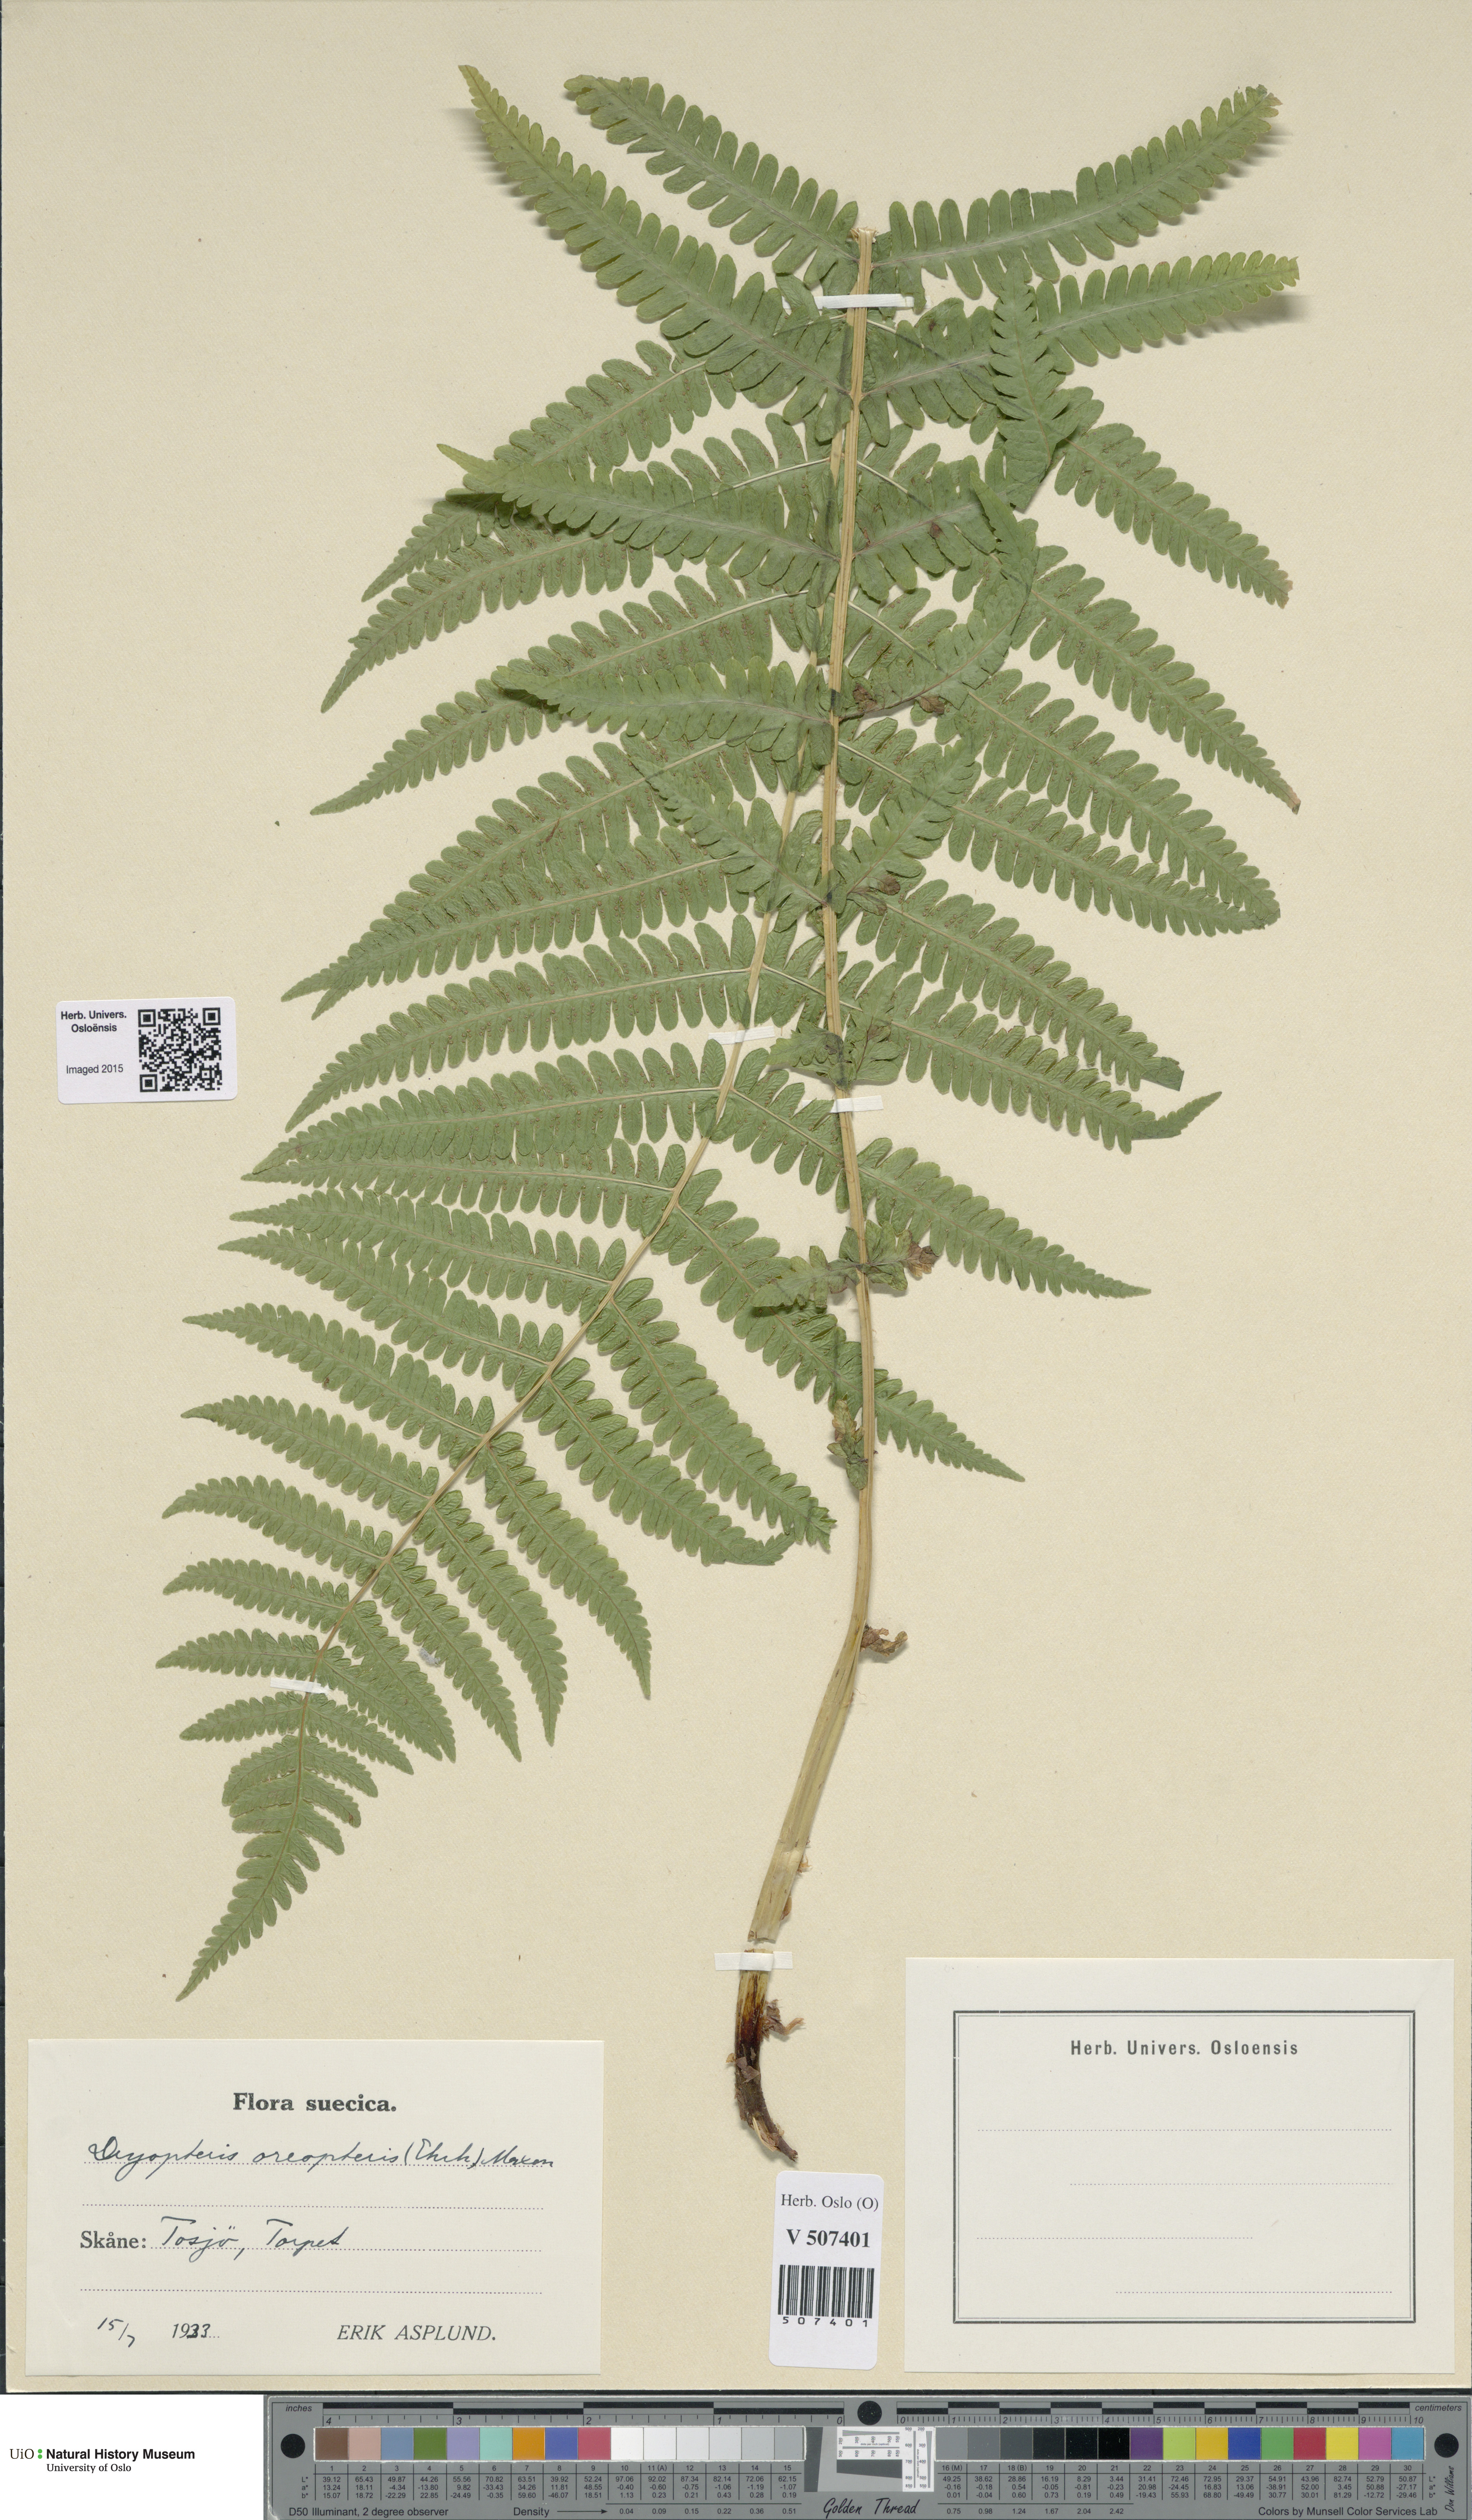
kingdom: Plantae
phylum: Tracheophyta
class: Polypodiopsida
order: Polypodiales
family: Thelypteridaceae
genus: Oreopteris
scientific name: Oreopteris limbosperma
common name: Lemon-scented fern
